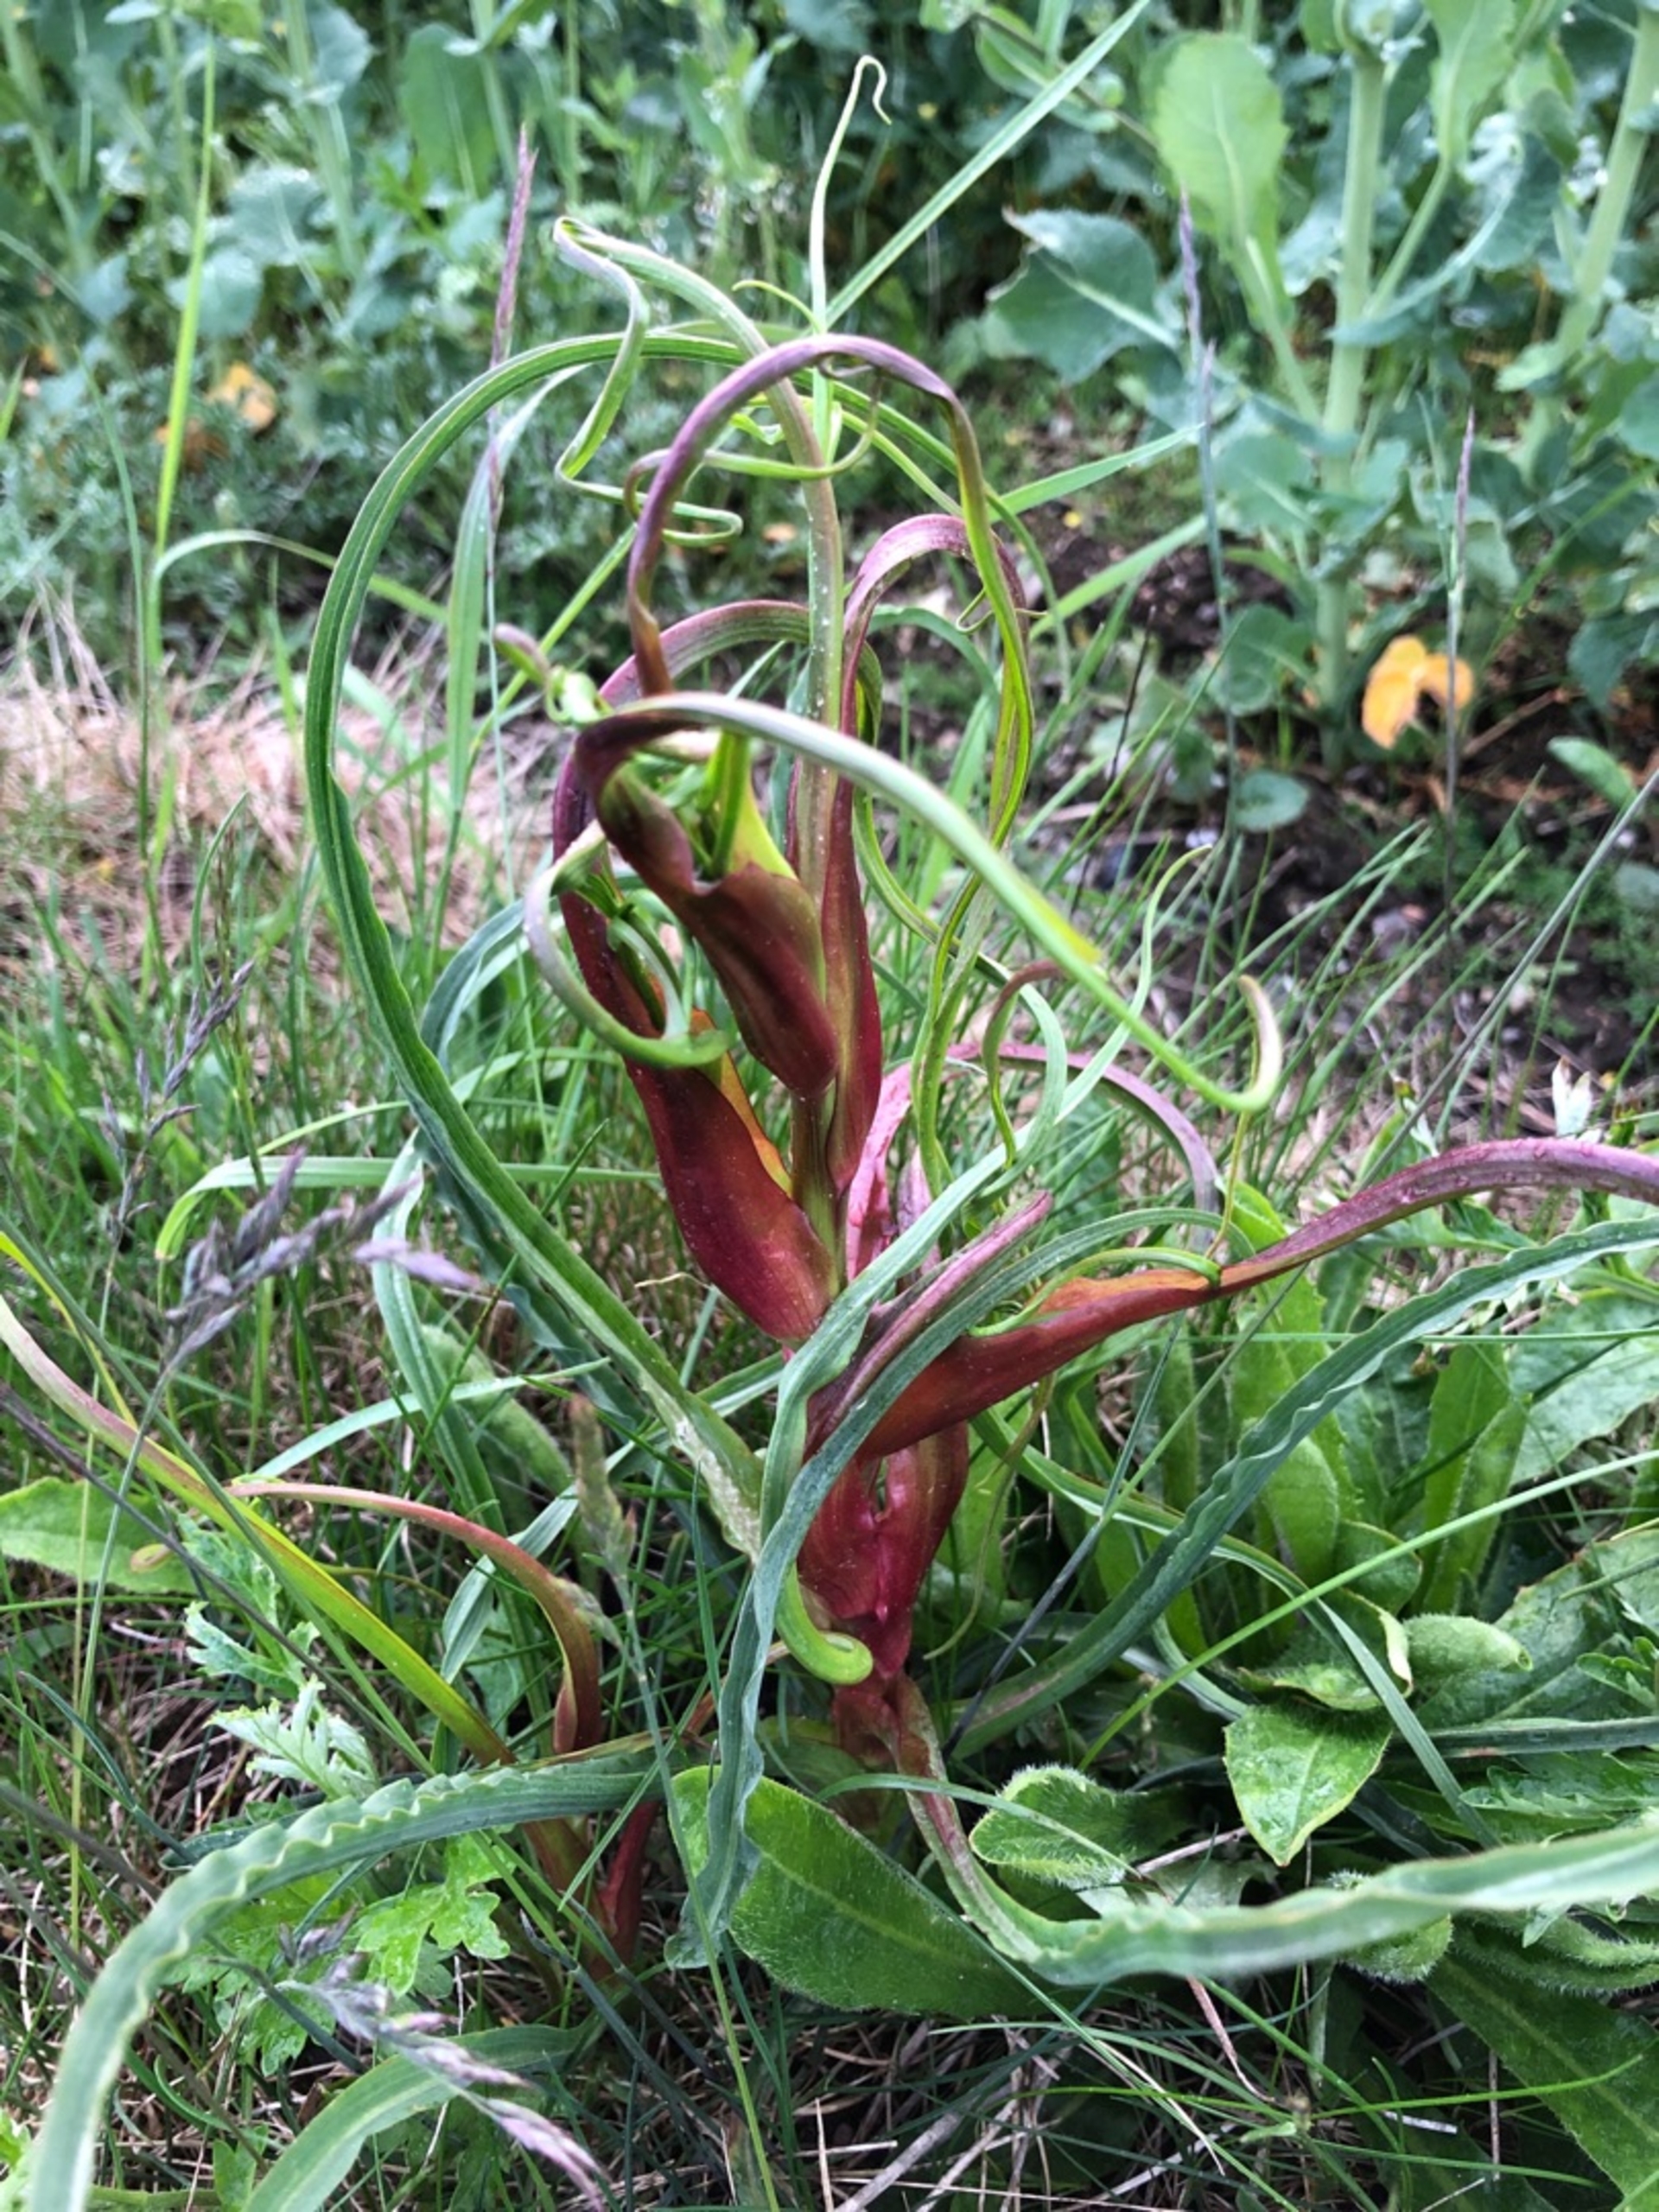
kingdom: Plantae
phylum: Tracheophyta
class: Magnoliopsida
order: Asterales
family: Asteraceae
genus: Tragopogon
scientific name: Tragopogon
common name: Gedeskægslægten
